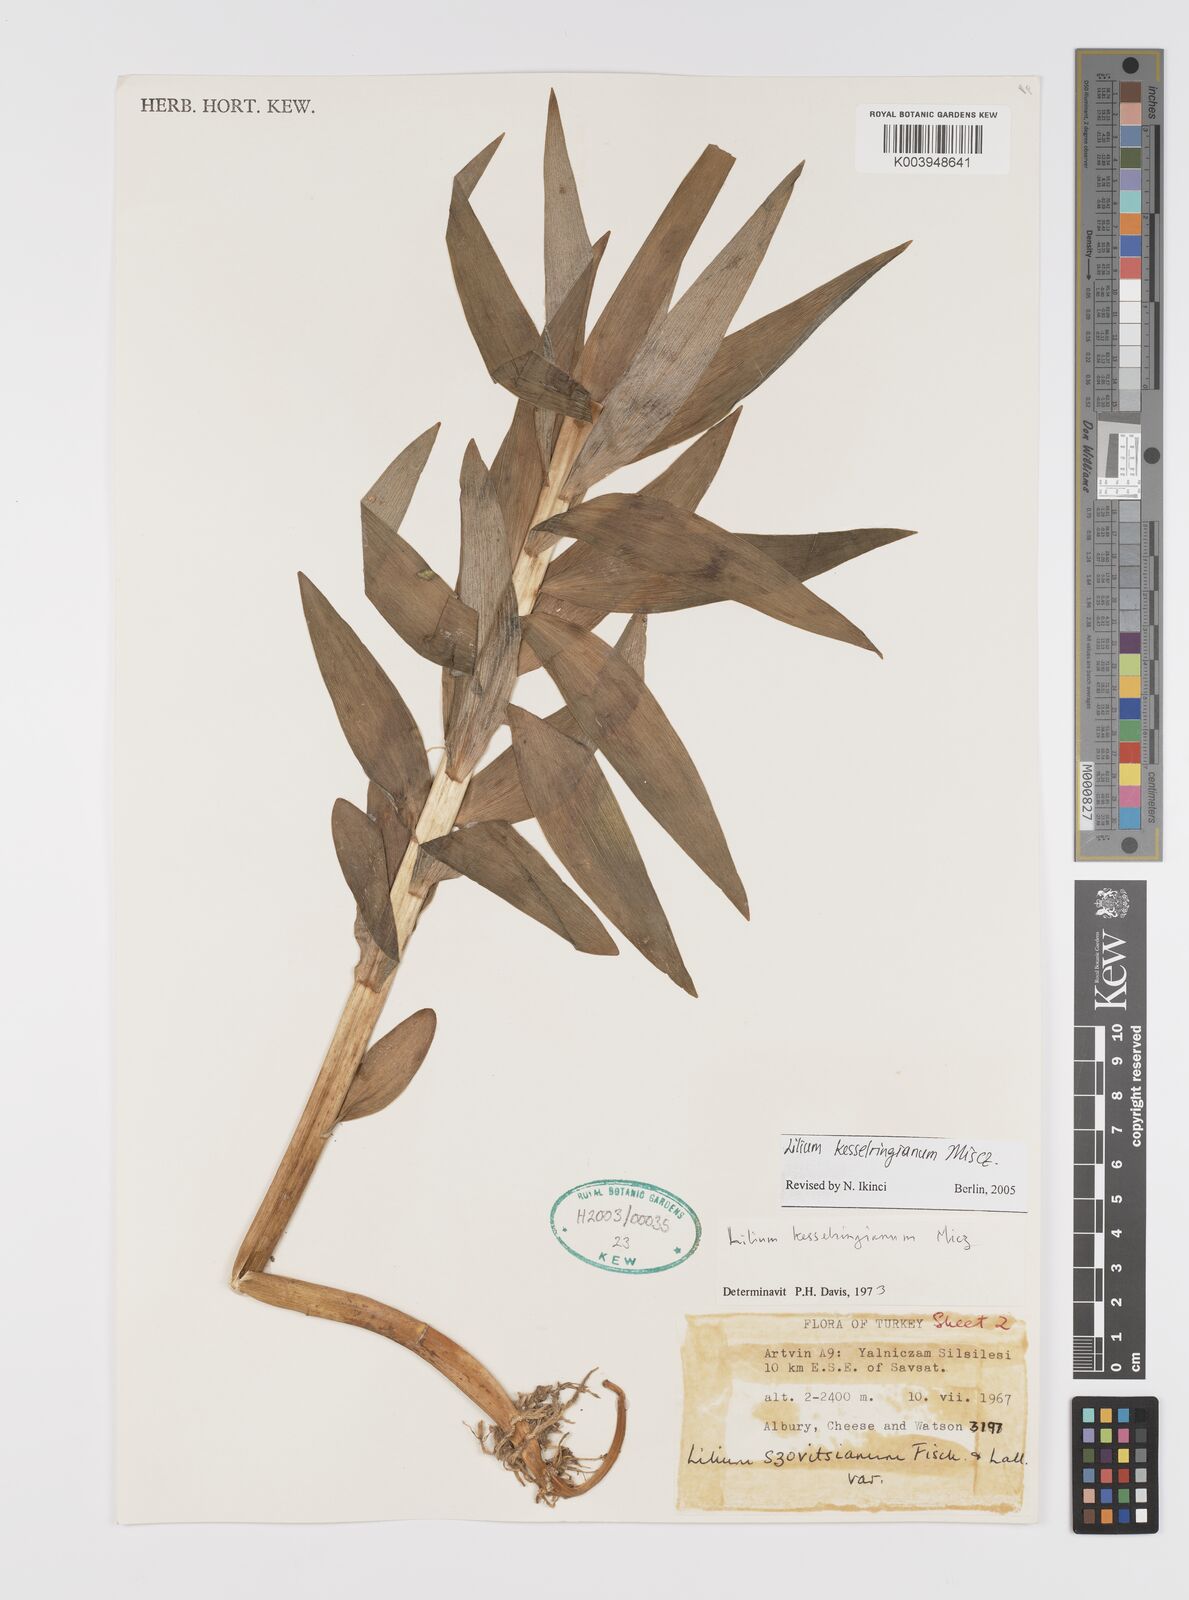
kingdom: Plantae
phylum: Tracheophyta
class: Liliopsida
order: Liliales
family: Liliaceae
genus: Lilium
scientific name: Lilium kesselringianum
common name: Kesselring lily
